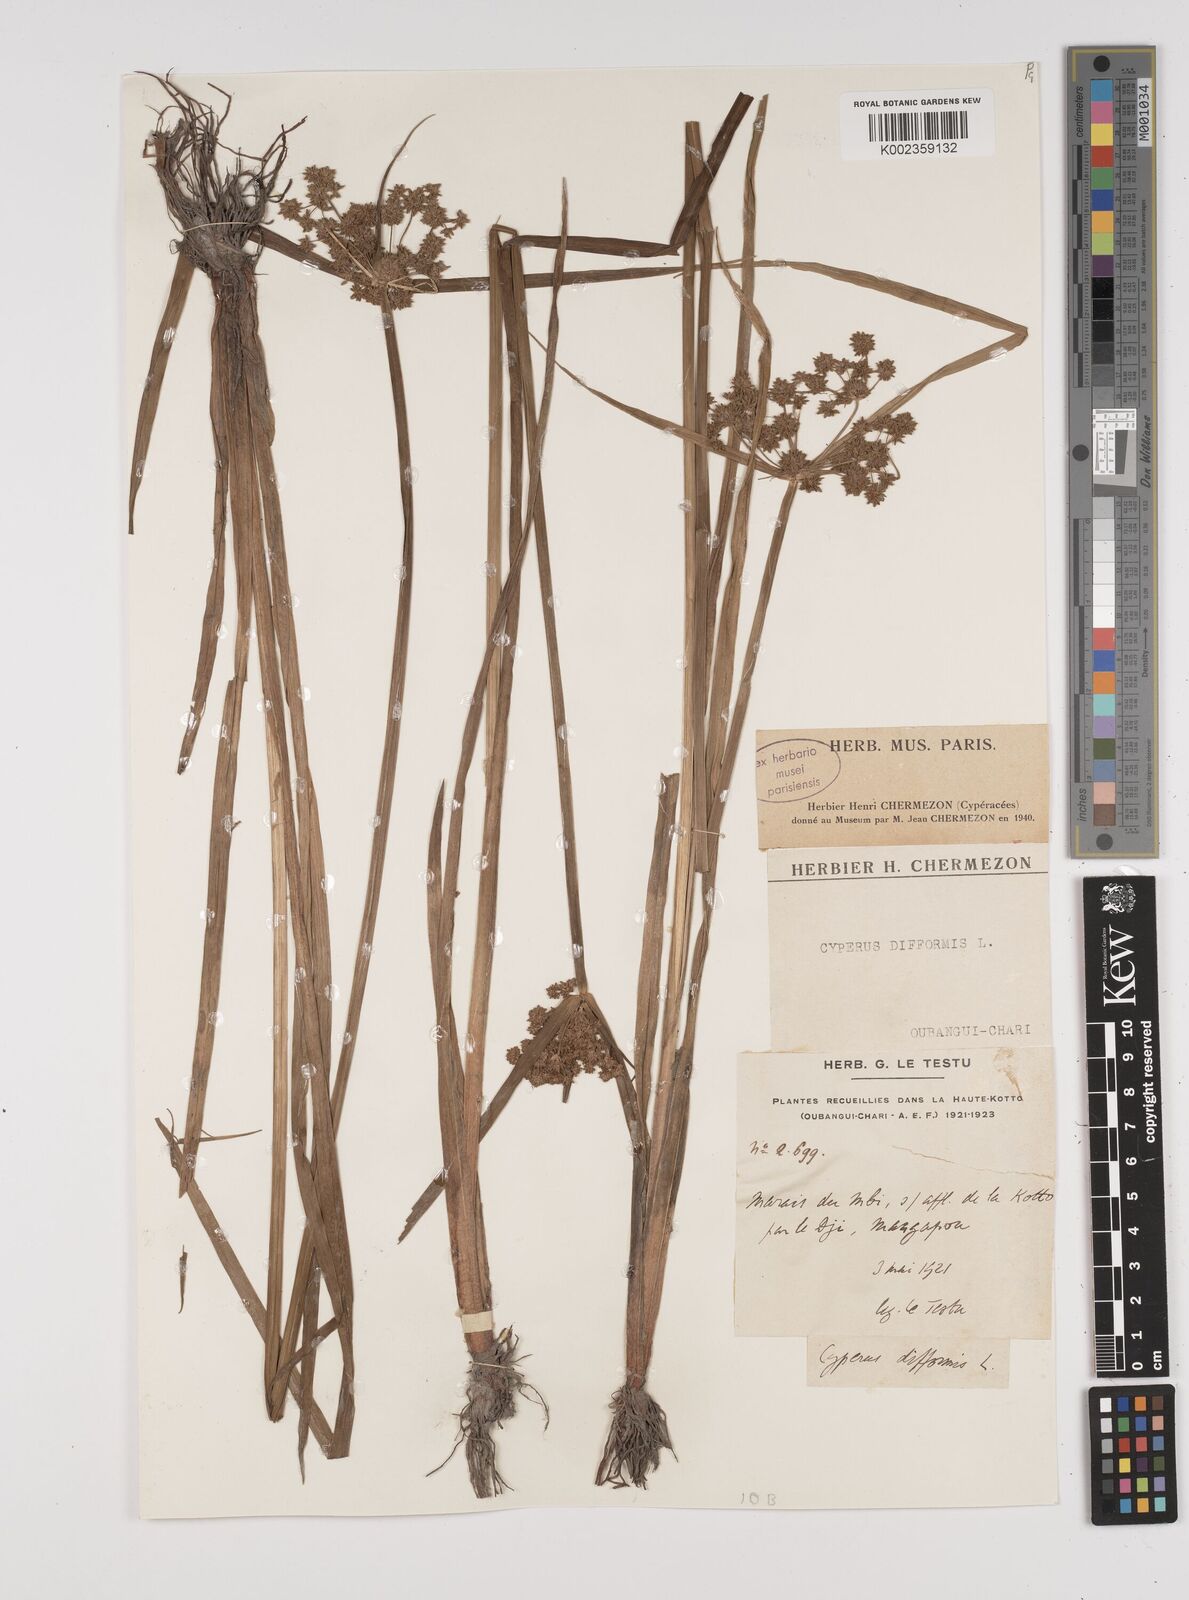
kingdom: Plantae
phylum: Tracheophyta
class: Liliopsida
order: Poales
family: Cyperaceae
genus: Cyperus
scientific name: Cyperus difformis
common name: Variable flatsedge
